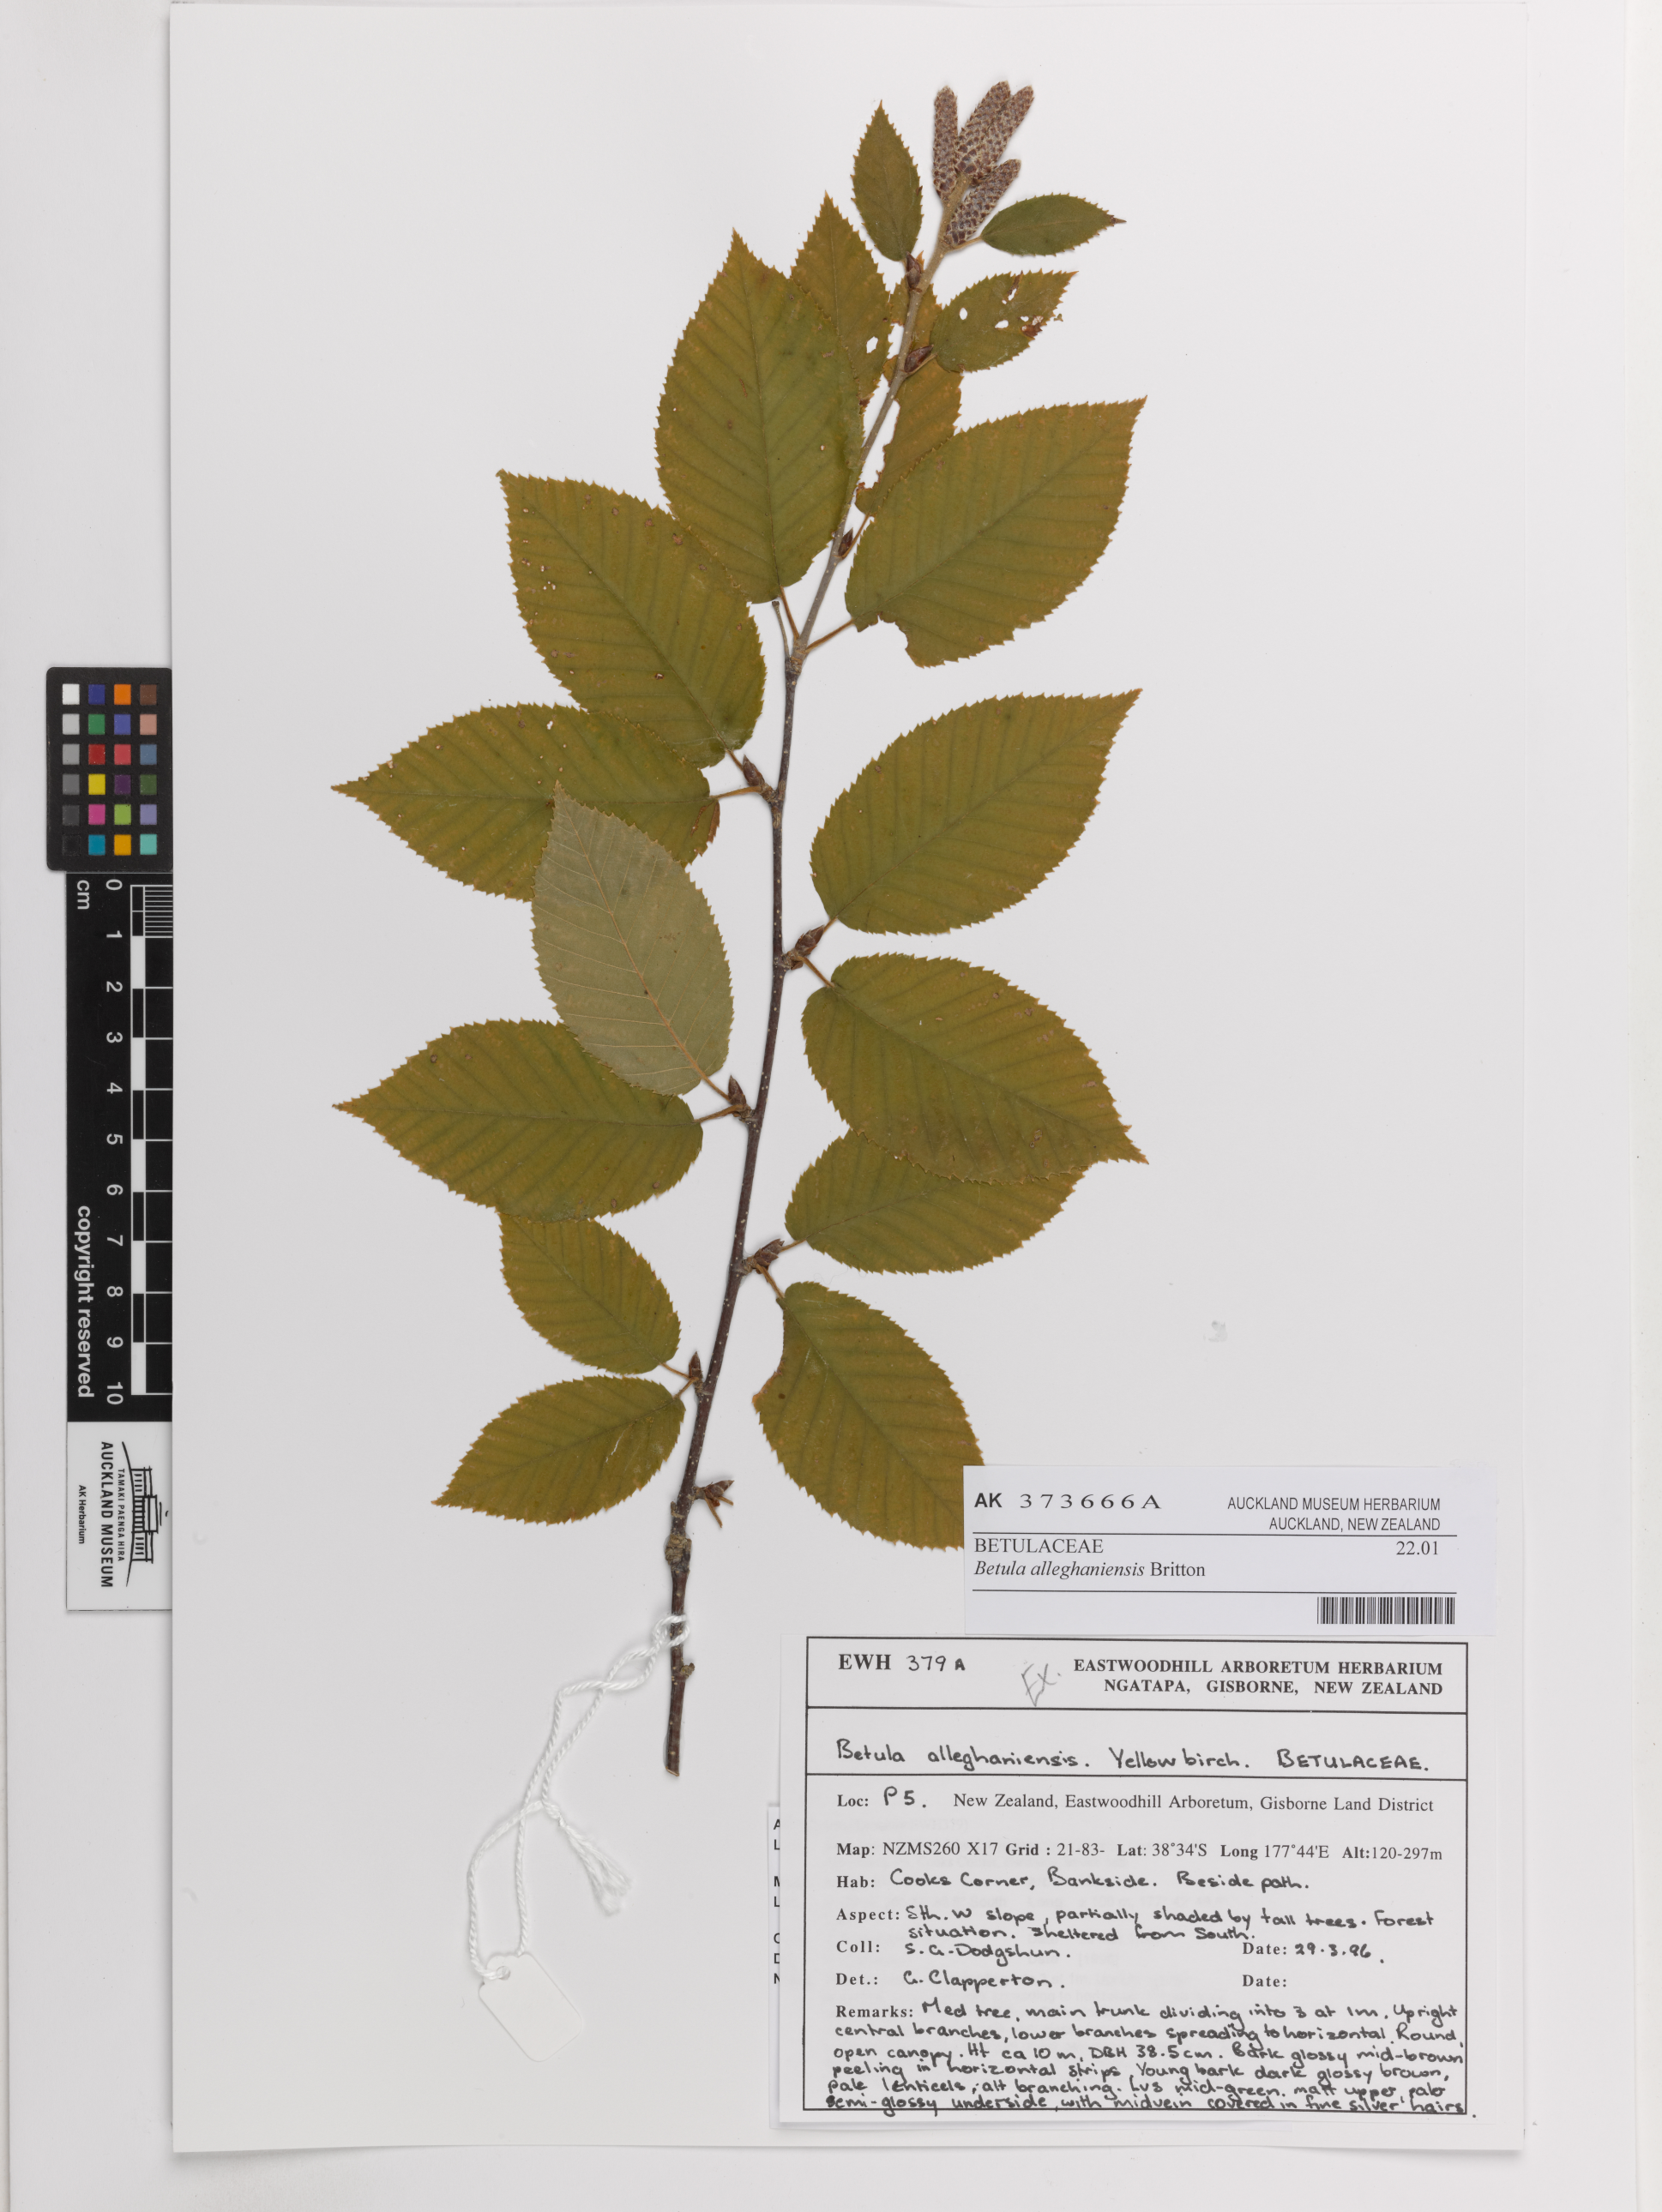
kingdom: Plantae
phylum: Tracheophyta
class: Magnoliopsida
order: Fagales
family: Betulaceae
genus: Betula
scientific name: Betula alleghaniensis
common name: Yellow birch
